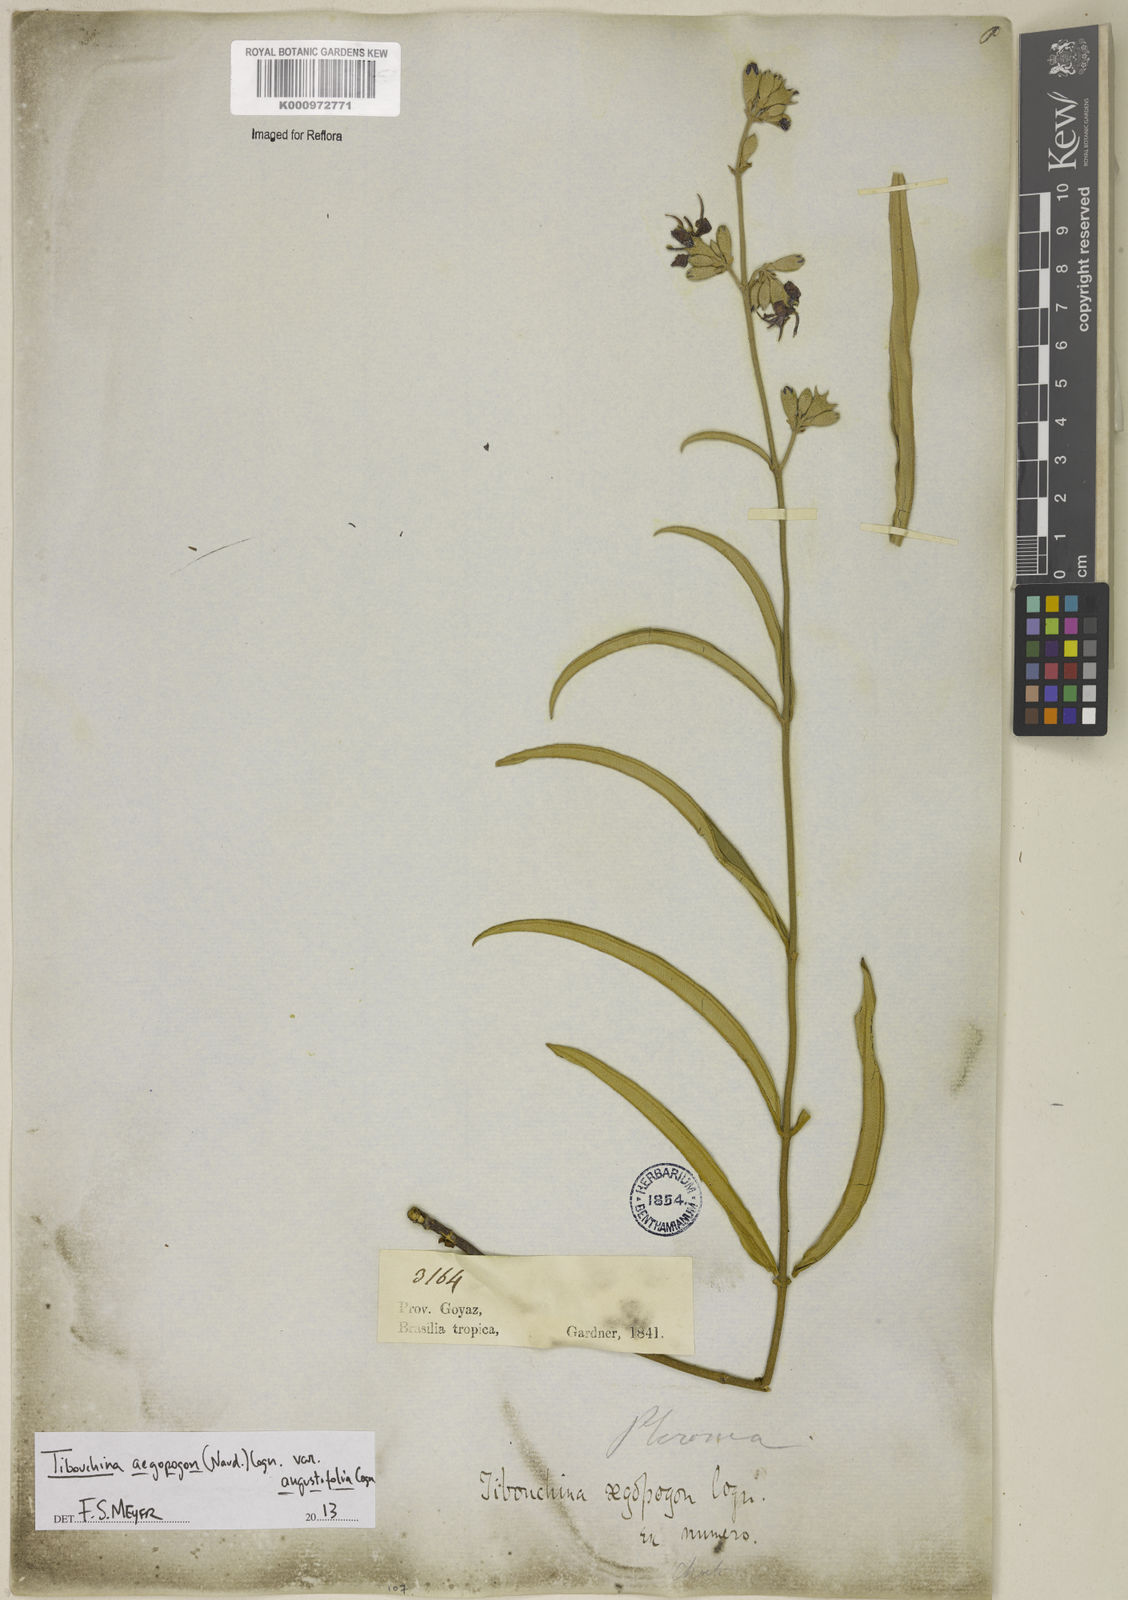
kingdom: Plantae
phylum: Tracheophyta
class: Magnoliopsida
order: Myrtales
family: Melastomataceae
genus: Pleroma
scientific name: Pleroma aegopogon
